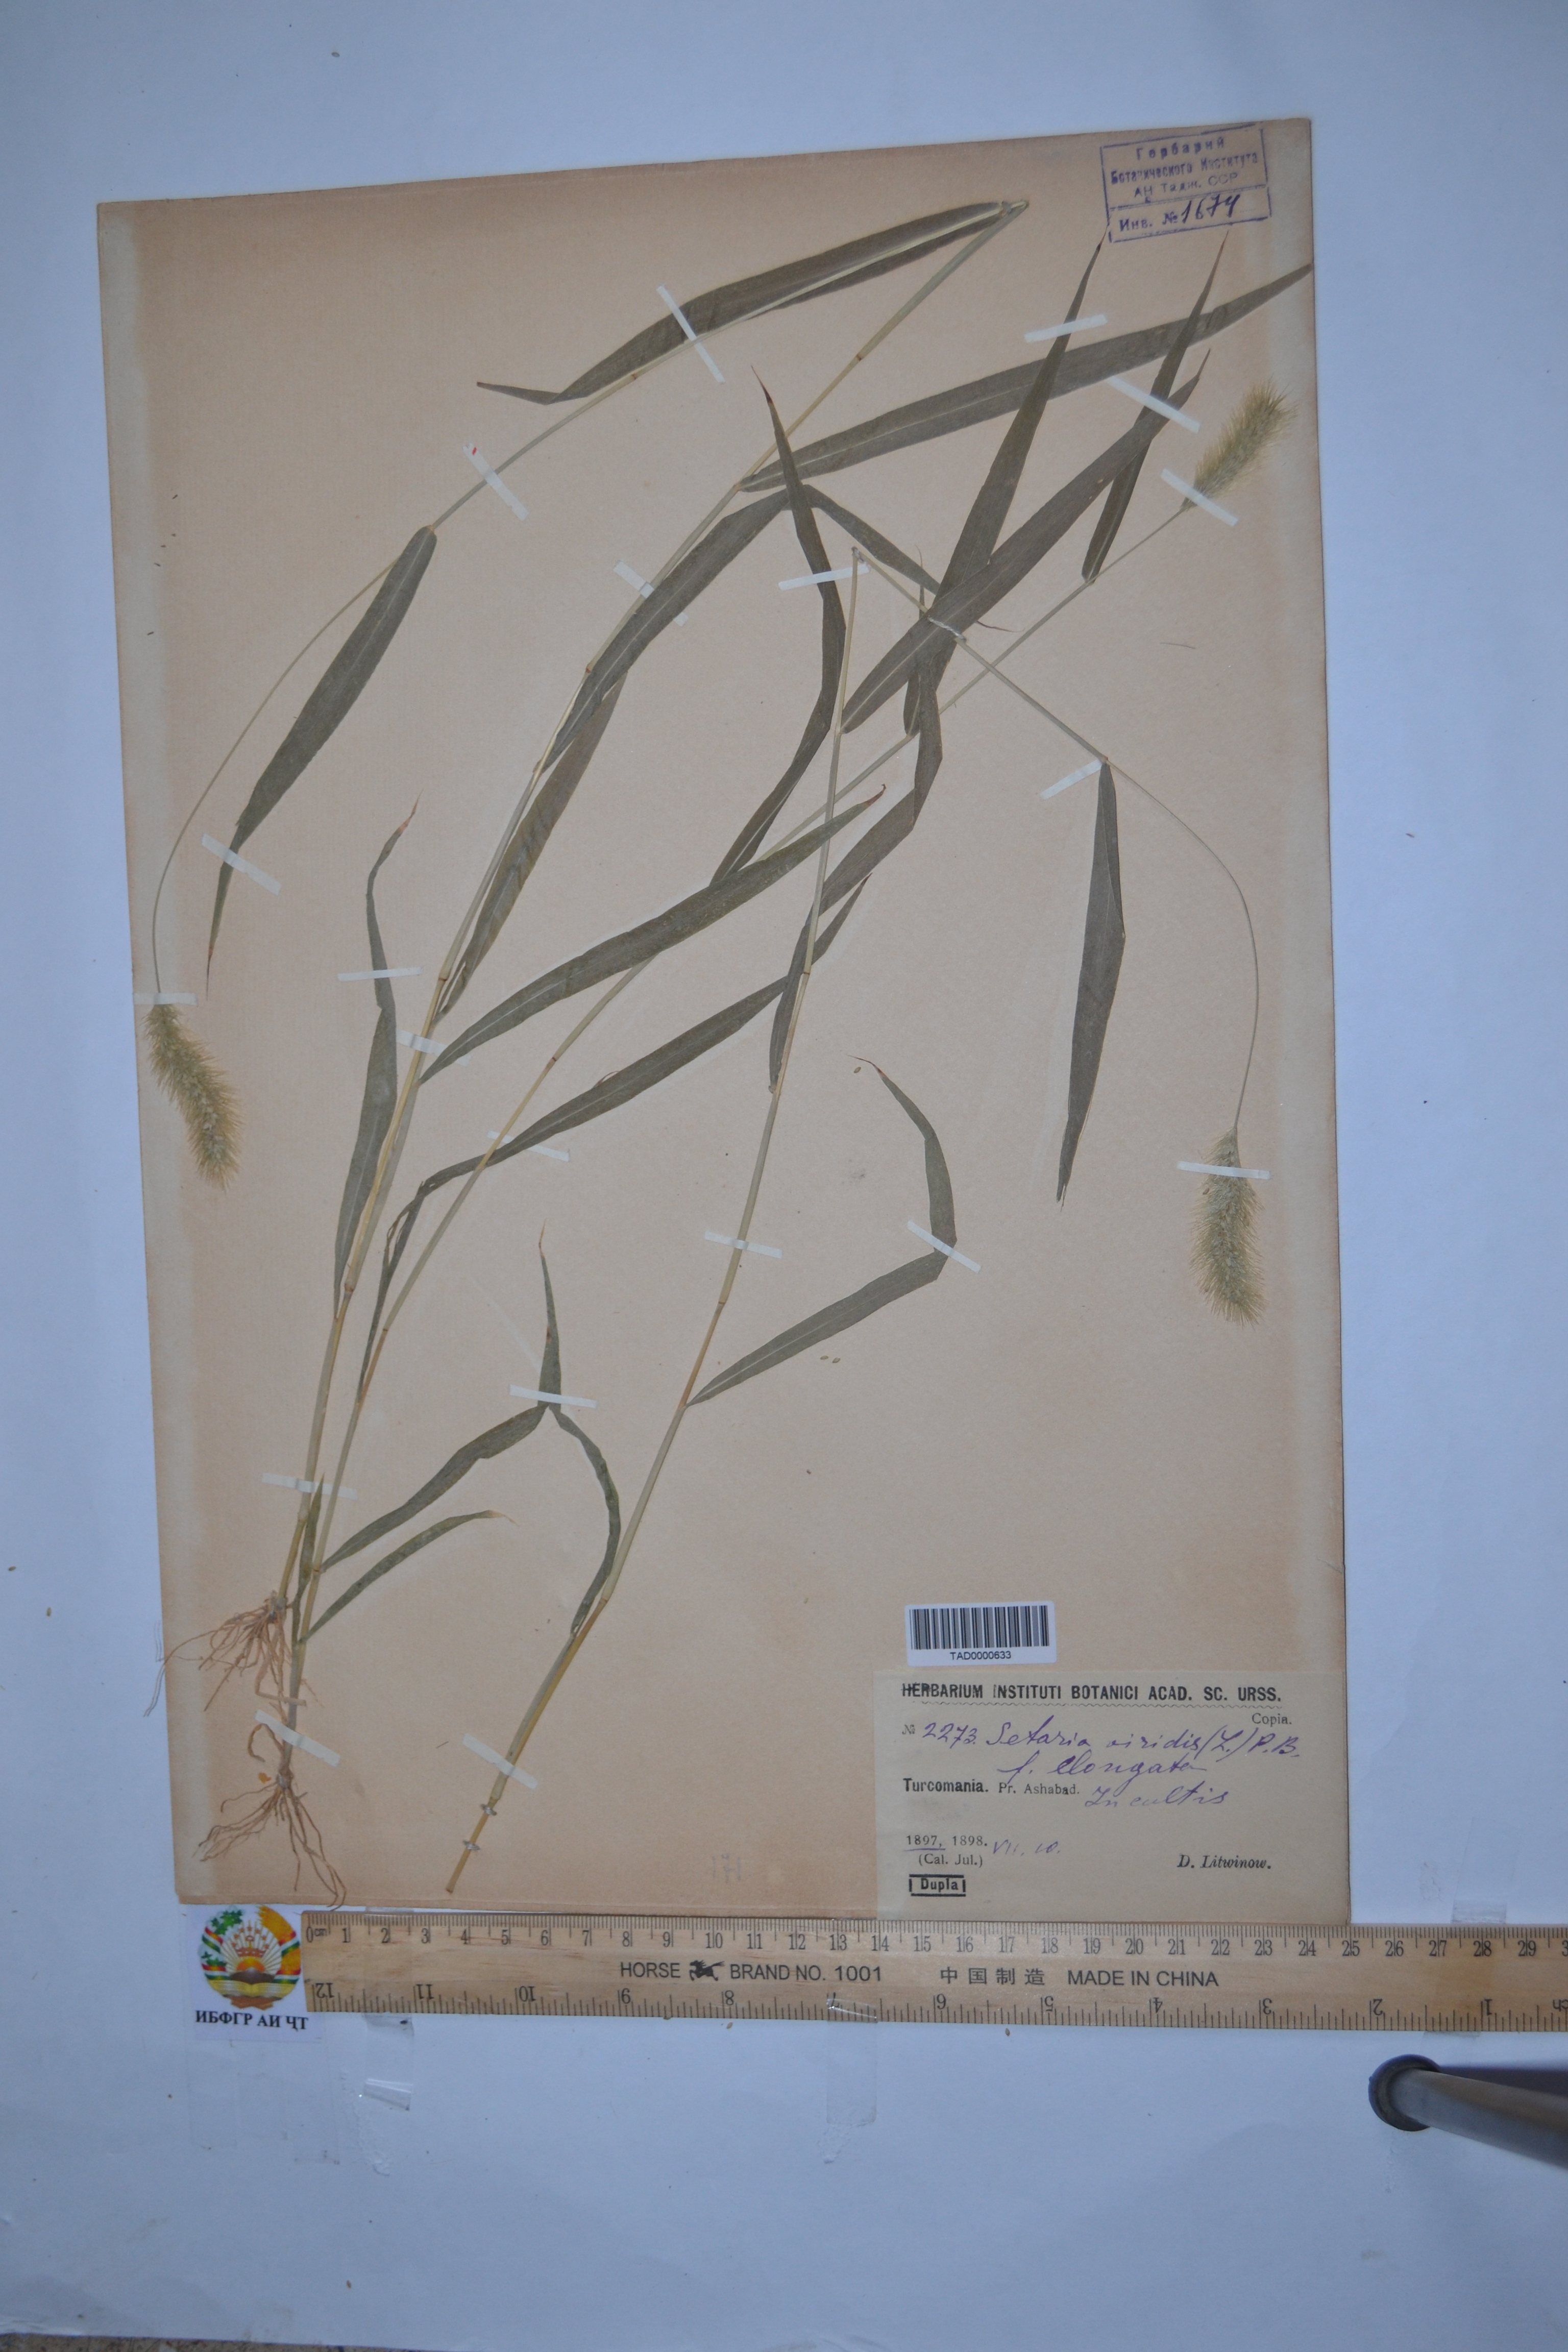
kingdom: Plantae
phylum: Tracheophyta
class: Liliopsida
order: Poales
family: Poaceae
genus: Setaria
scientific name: Setaria viridis
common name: Green bristlegrass
